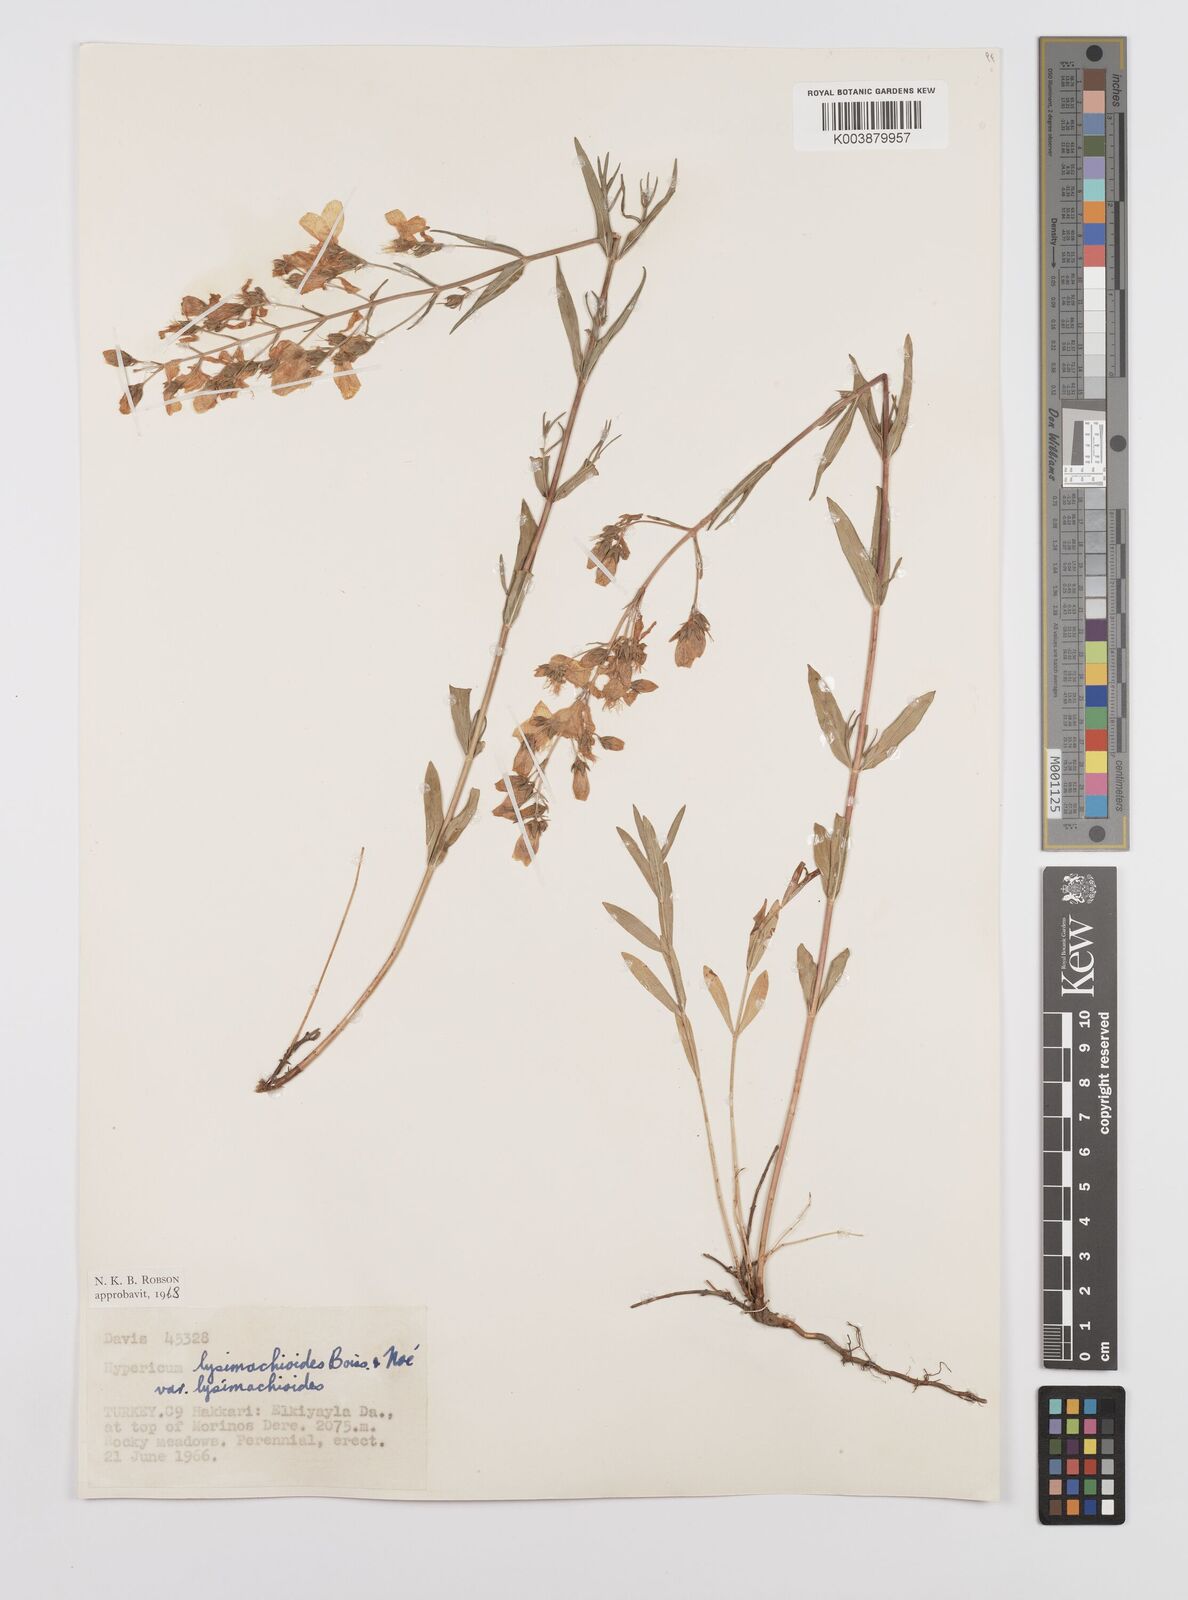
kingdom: Plantae
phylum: Tracheophyta
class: Magnoliopsida
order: Malpighiales
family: Hypericaceae
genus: Hypericum
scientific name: Hypericum lysimachioides
